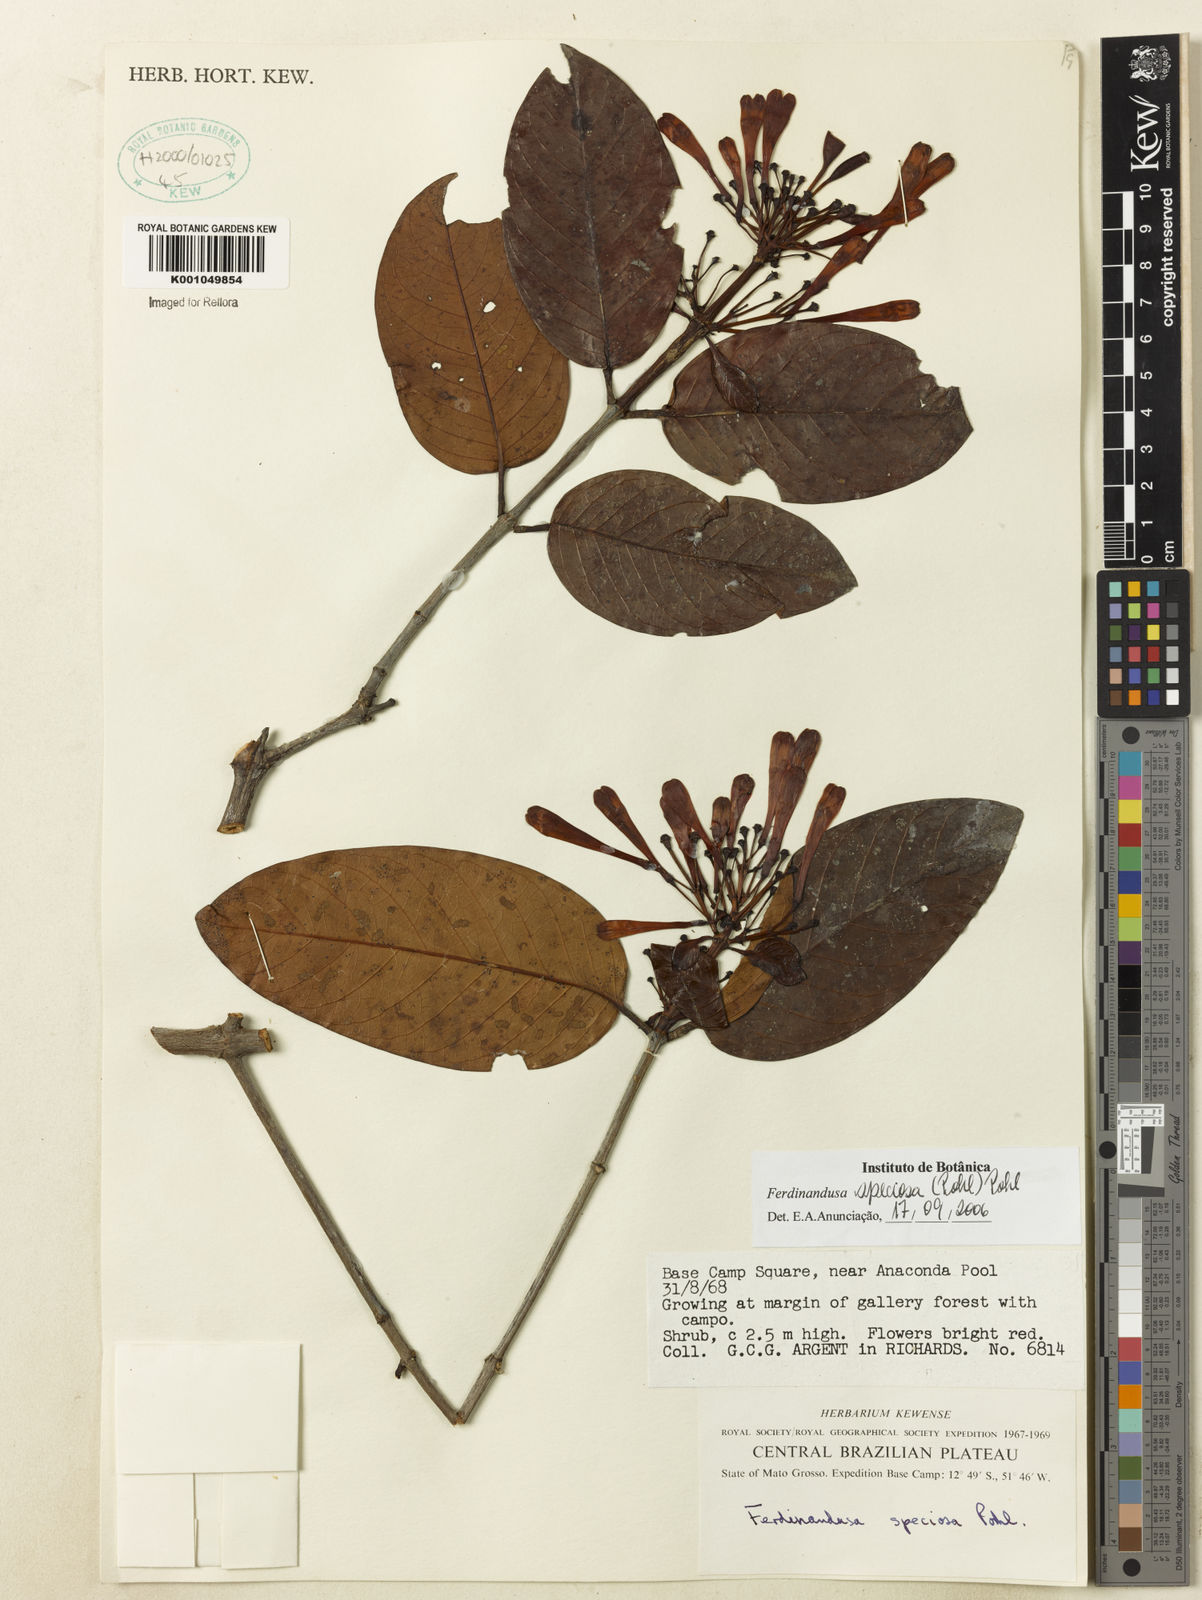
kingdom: Plantae
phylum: Tracheophyta
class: Magnoliopsida
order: Gentianales
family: Rubiaceae
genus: Ferdinandusa
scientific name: Ferdinandusa speciosa
